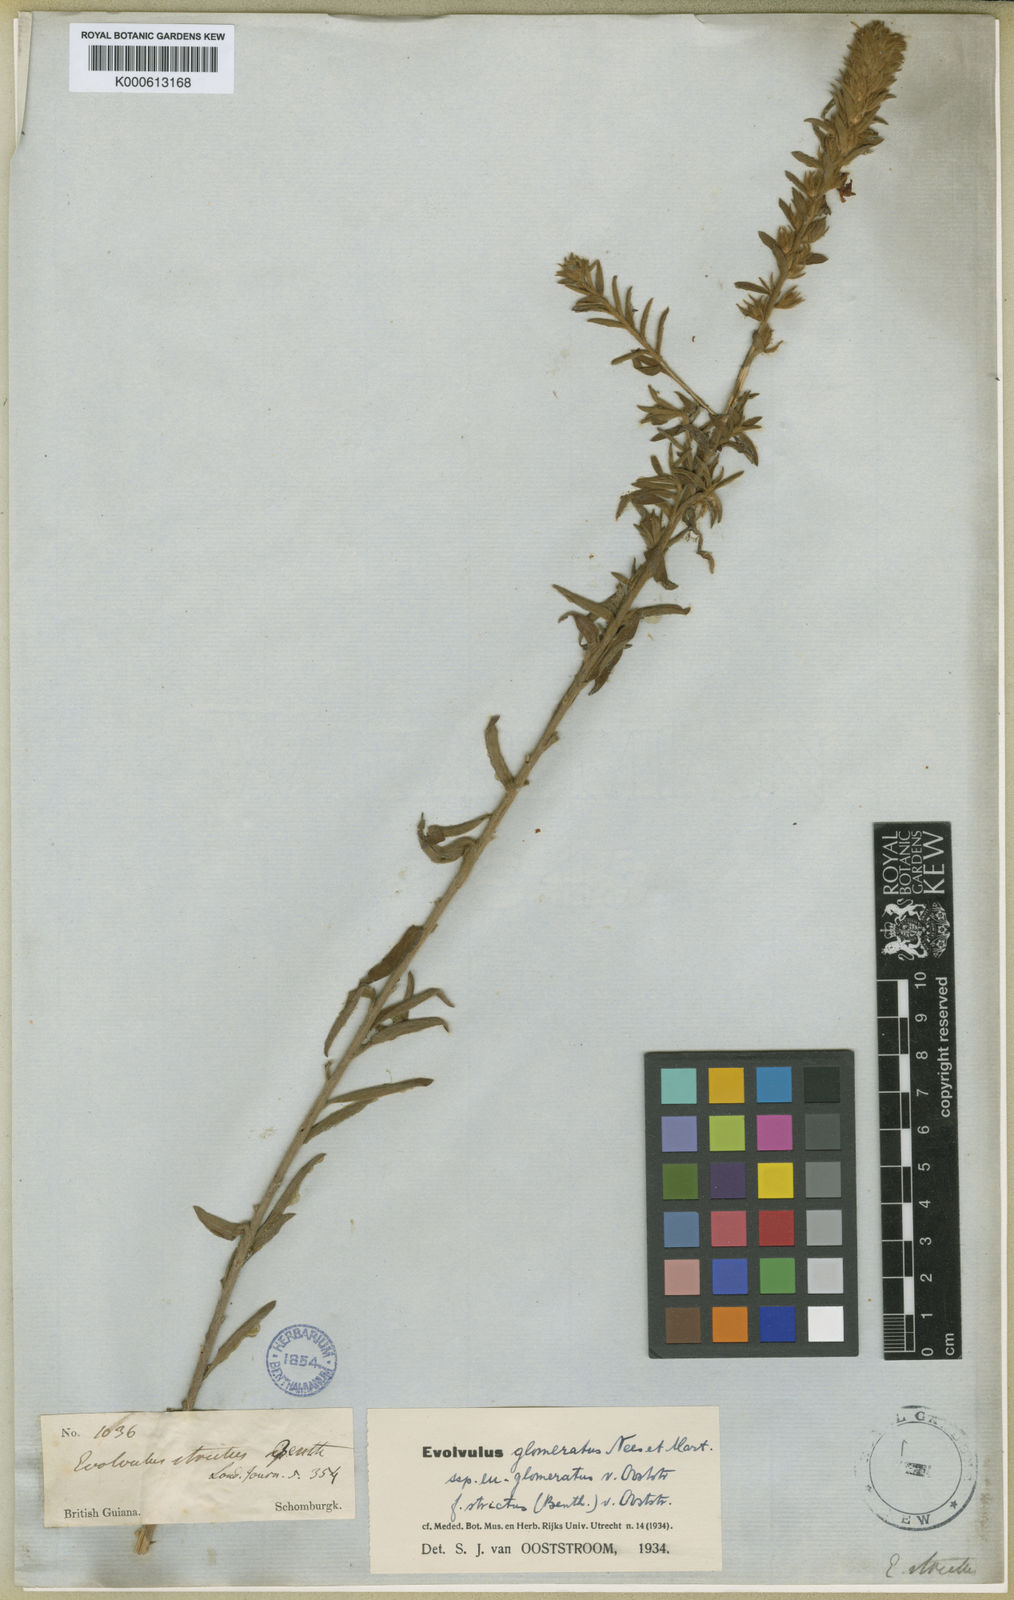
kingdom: Plantae
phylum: Tracheophyta
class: Magnoliopsida
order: Solanales
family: Convolvulaceae
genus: Evolvulus
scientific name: Evolvulus glomeratus
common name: Brazilian dwarf morning-glory
